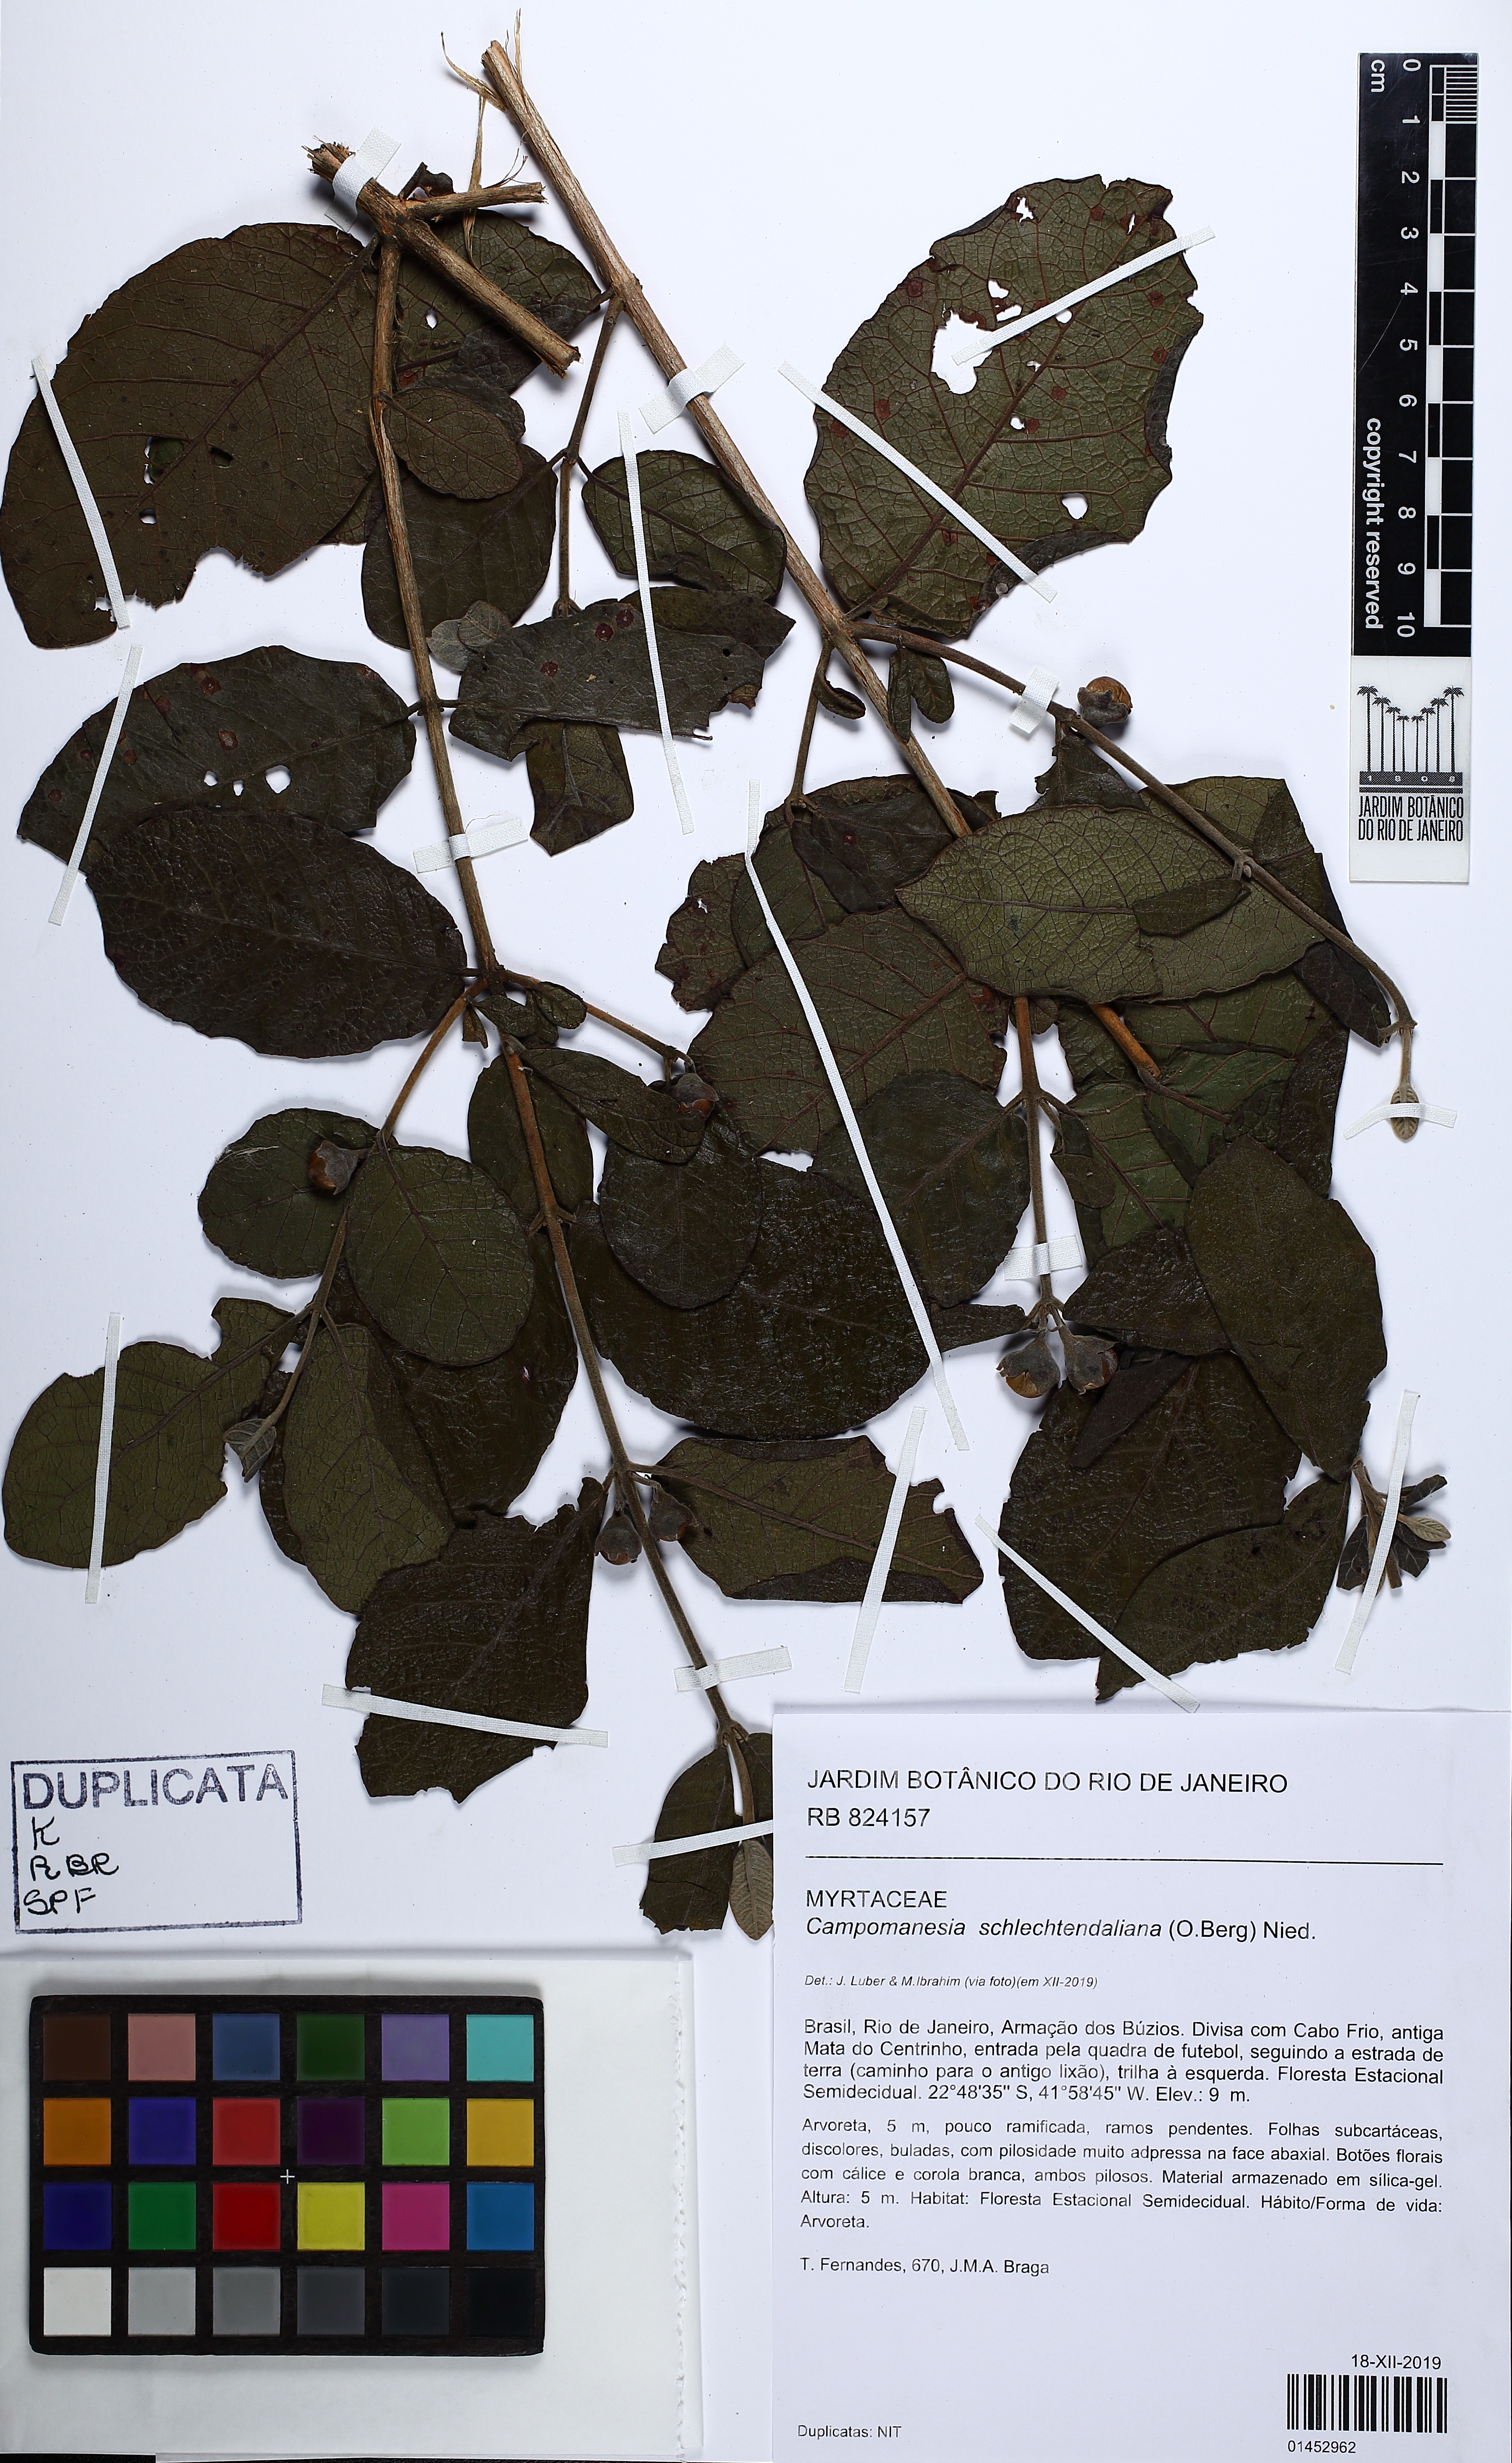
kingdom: Plantae
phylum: Tracheophyta
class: Magnoliopsida
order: Myrtales
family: Myrtaceae
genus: Campomanesia
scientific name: Campomanesia schlechtendaliana
